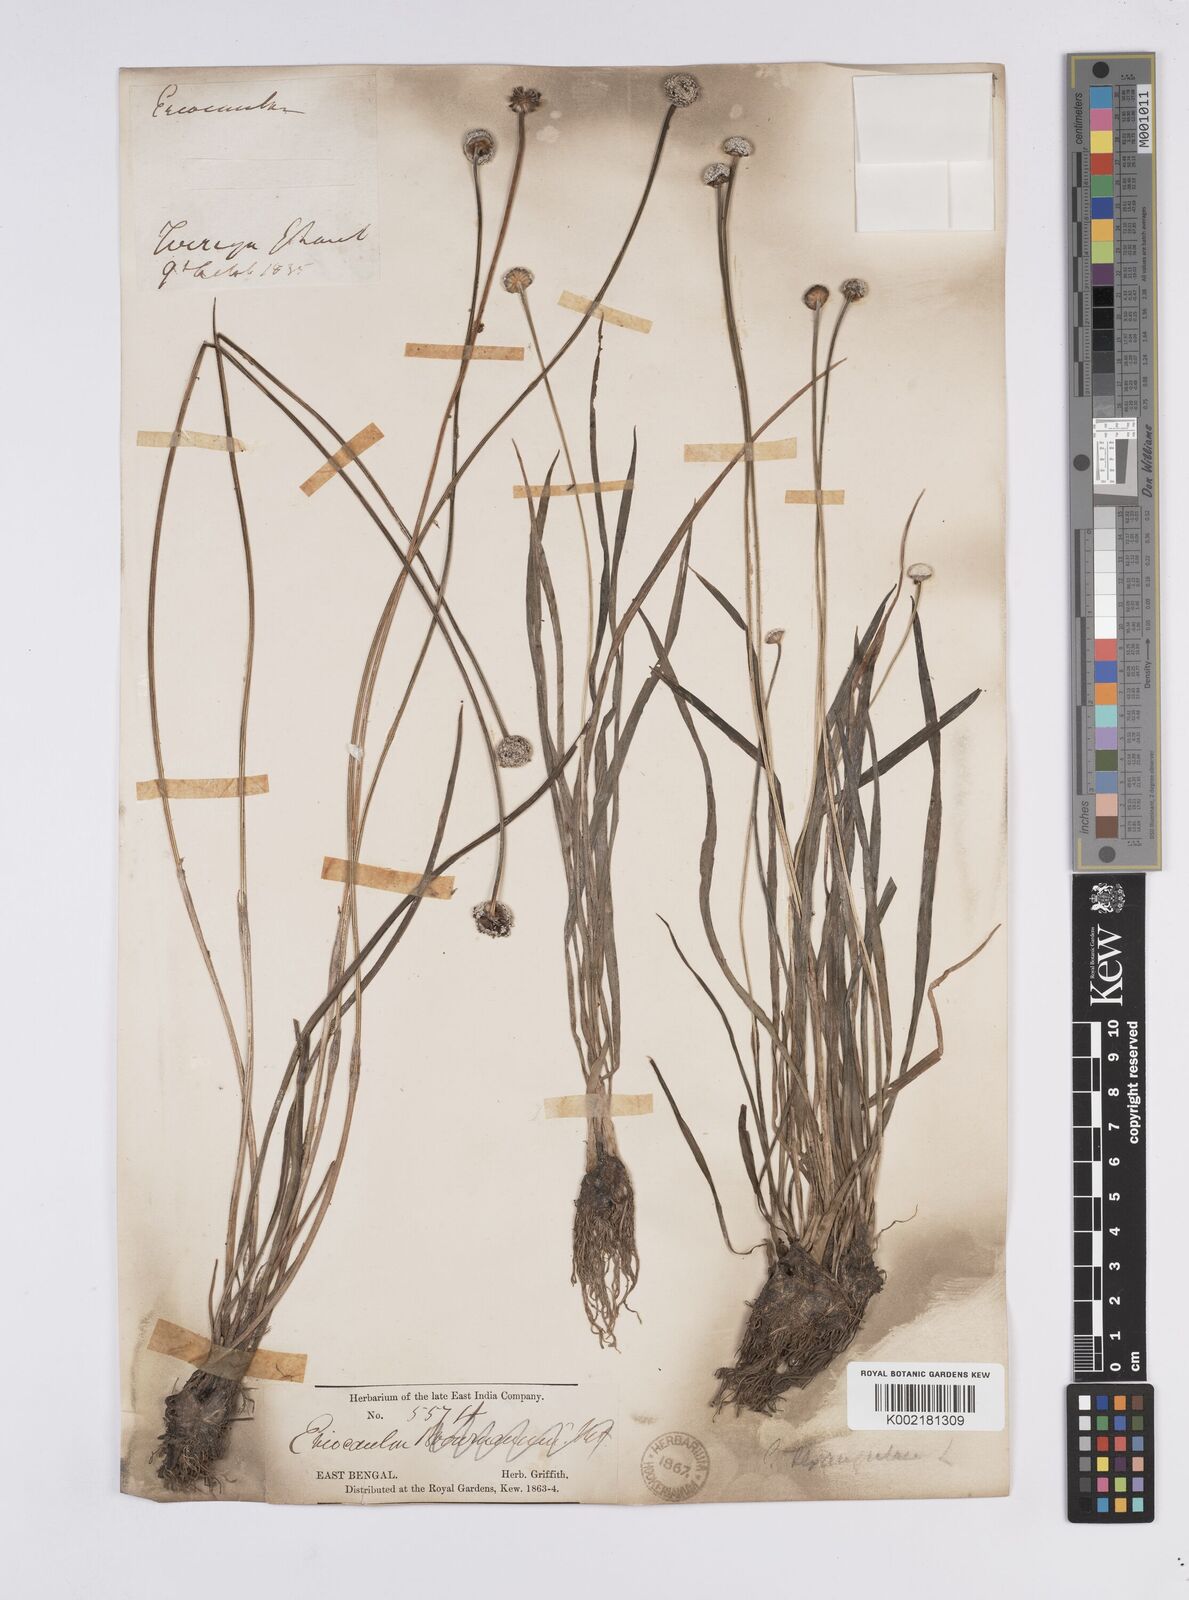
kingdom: Plantae
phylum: Tracheophyta
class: Liliopsida
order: Poales
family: Eriocaulaceae
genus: Eriocaulon
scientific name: Eriocaulon brownianum
